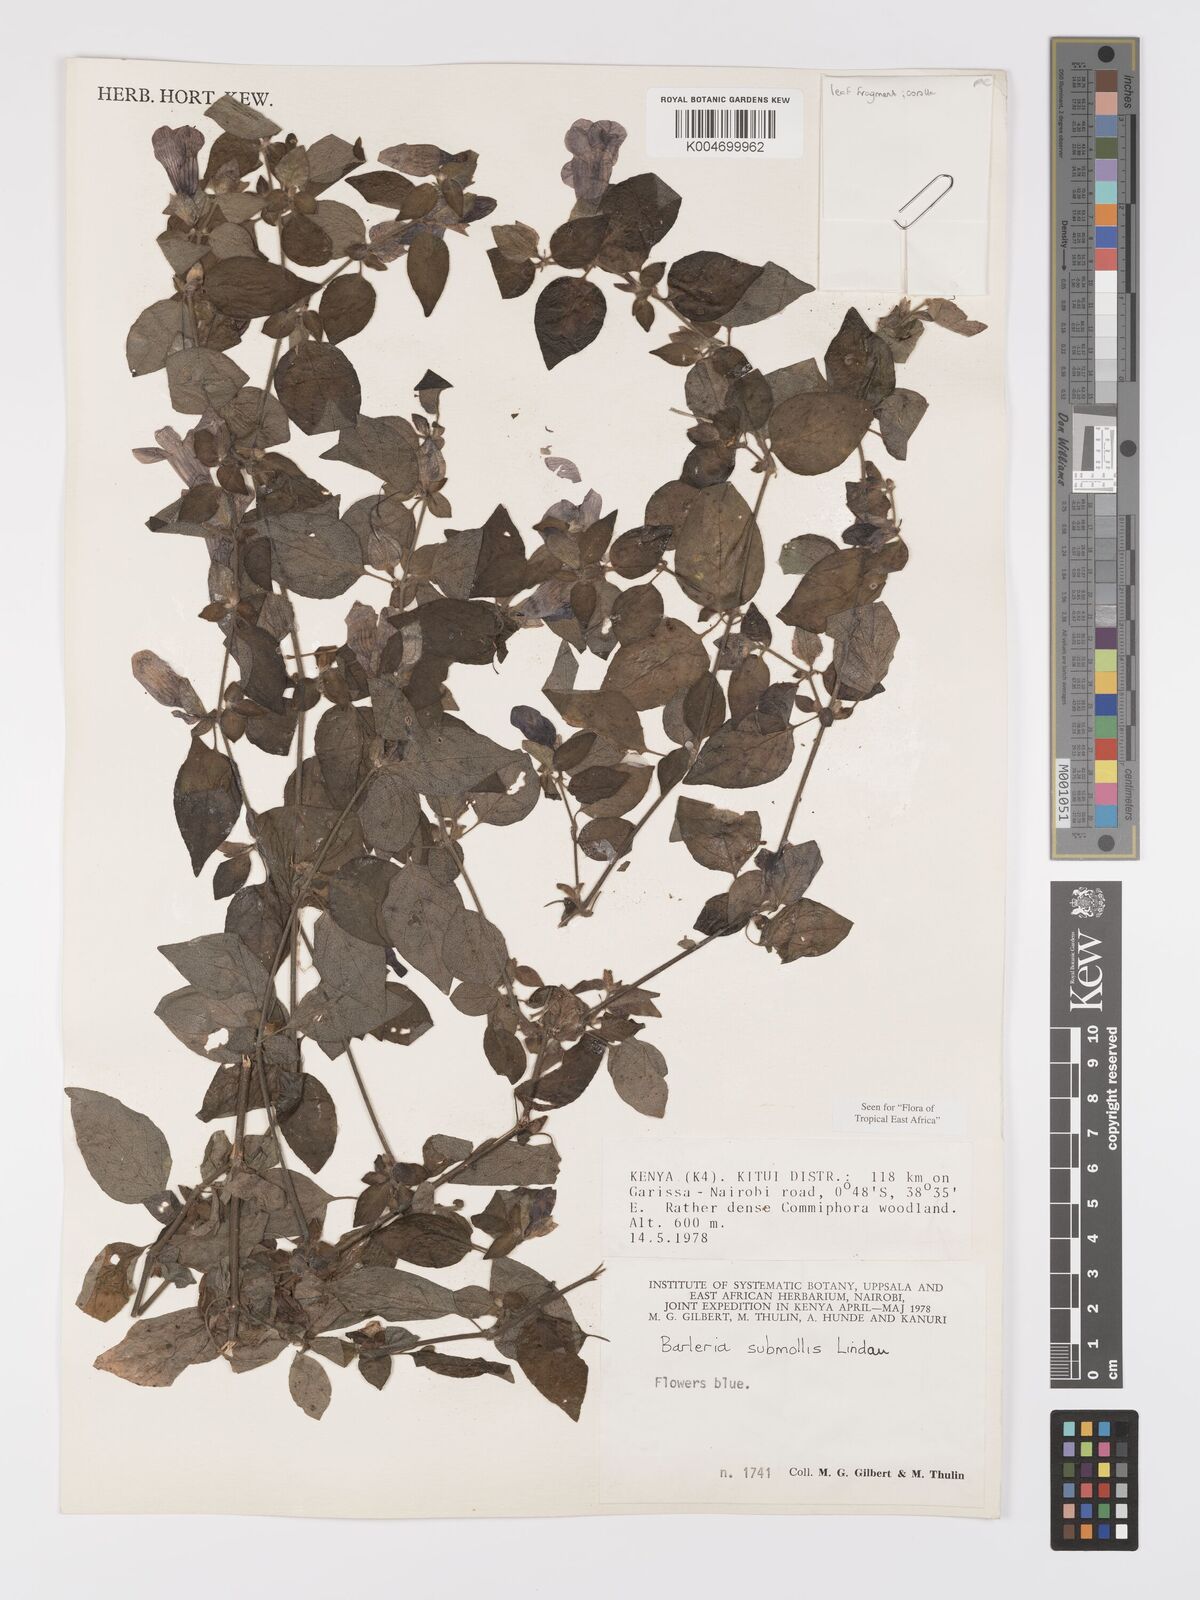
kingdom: Plantae
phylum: Tracheophyta
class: Magnoliopsida
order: Lamiales
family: Acanthaceae
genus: Barleria
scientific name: Barleria submollis
